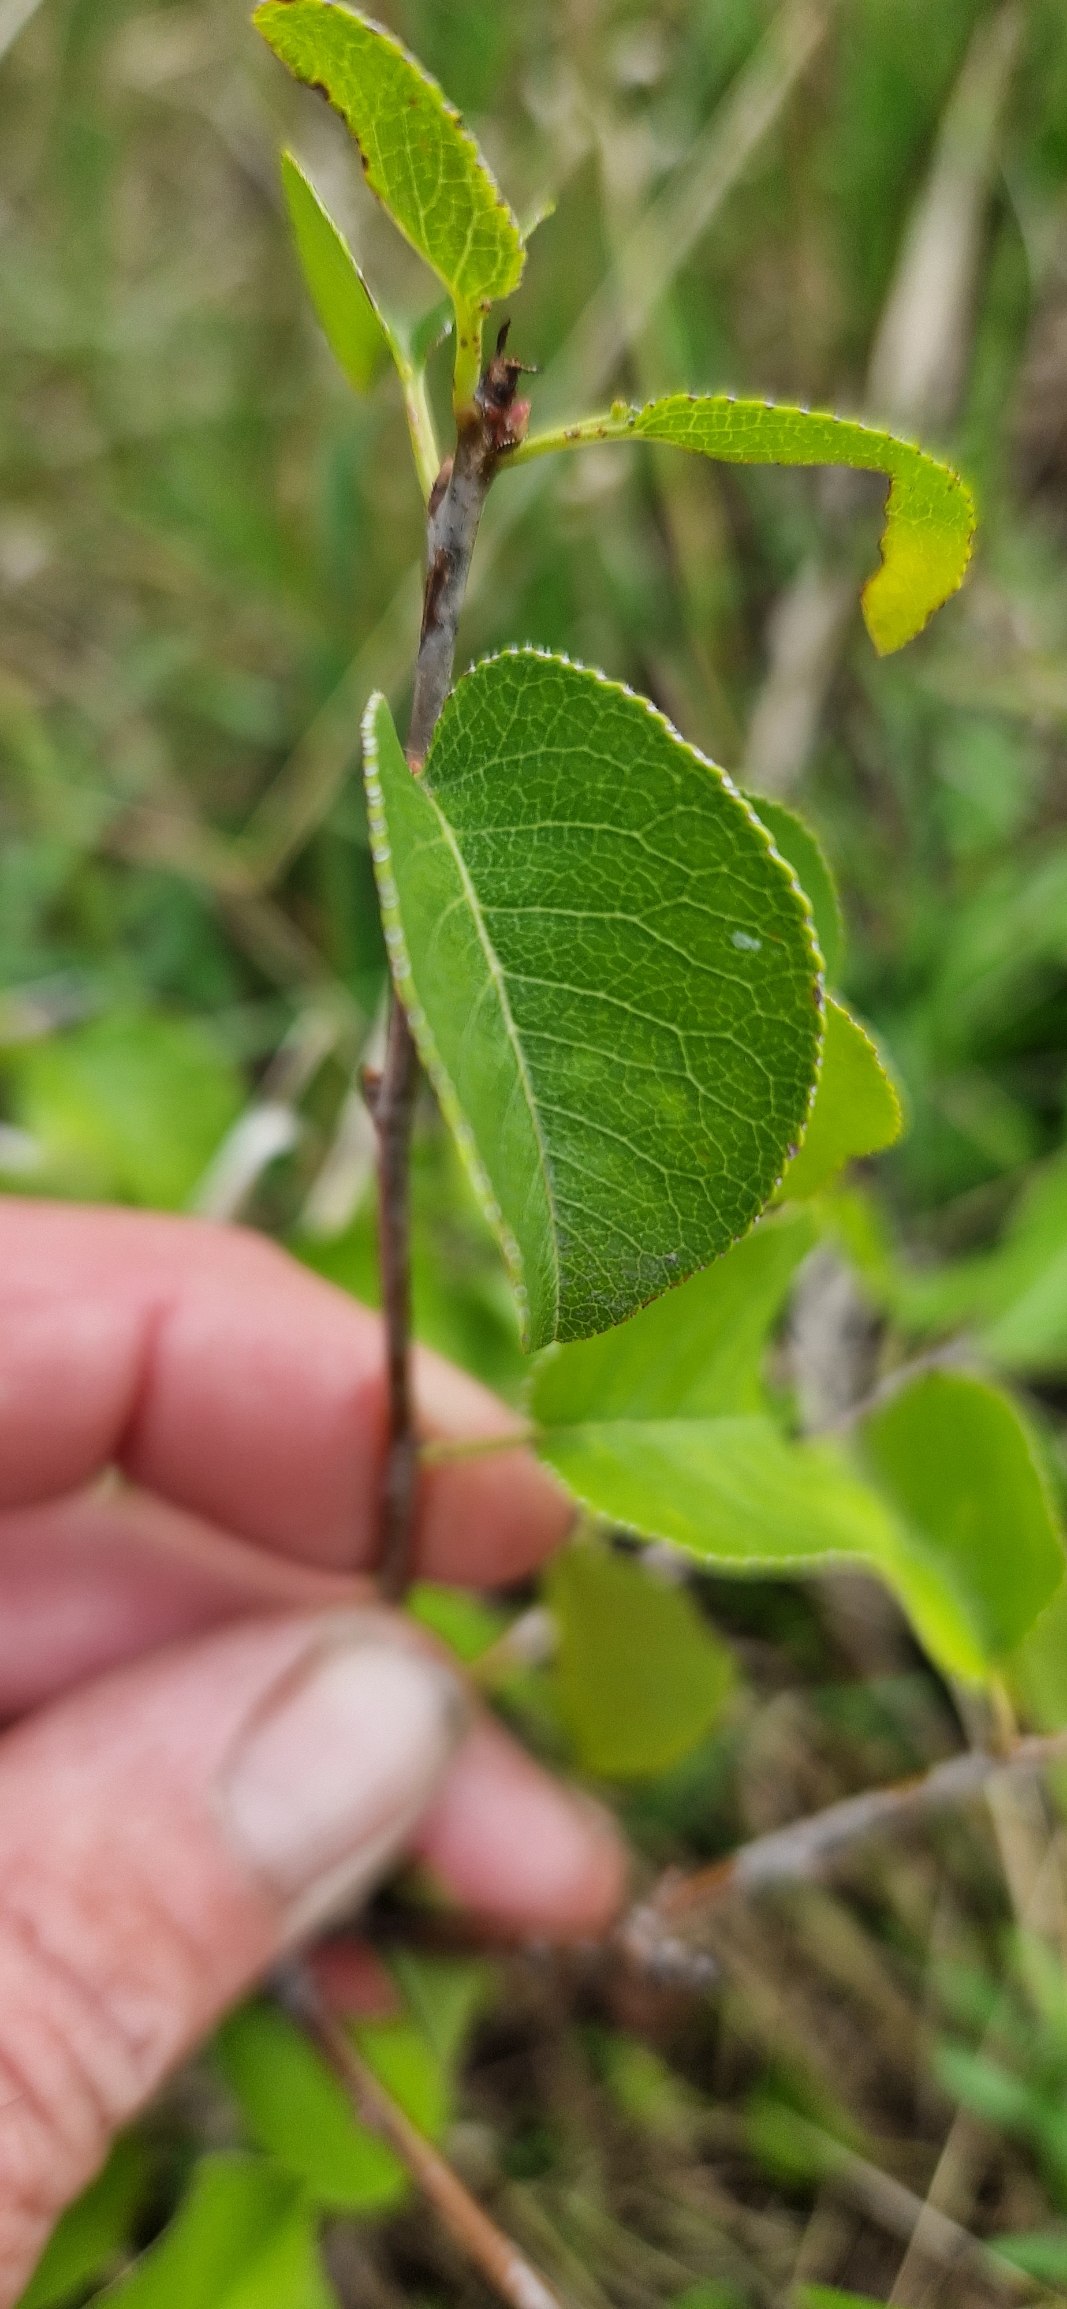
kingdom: Plantae
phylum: Tracheophyta
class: Magnoliopsida
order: Rosales
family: Rosaceae
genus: Prunus
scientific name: Prunus mahaleb
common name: Weichsel
